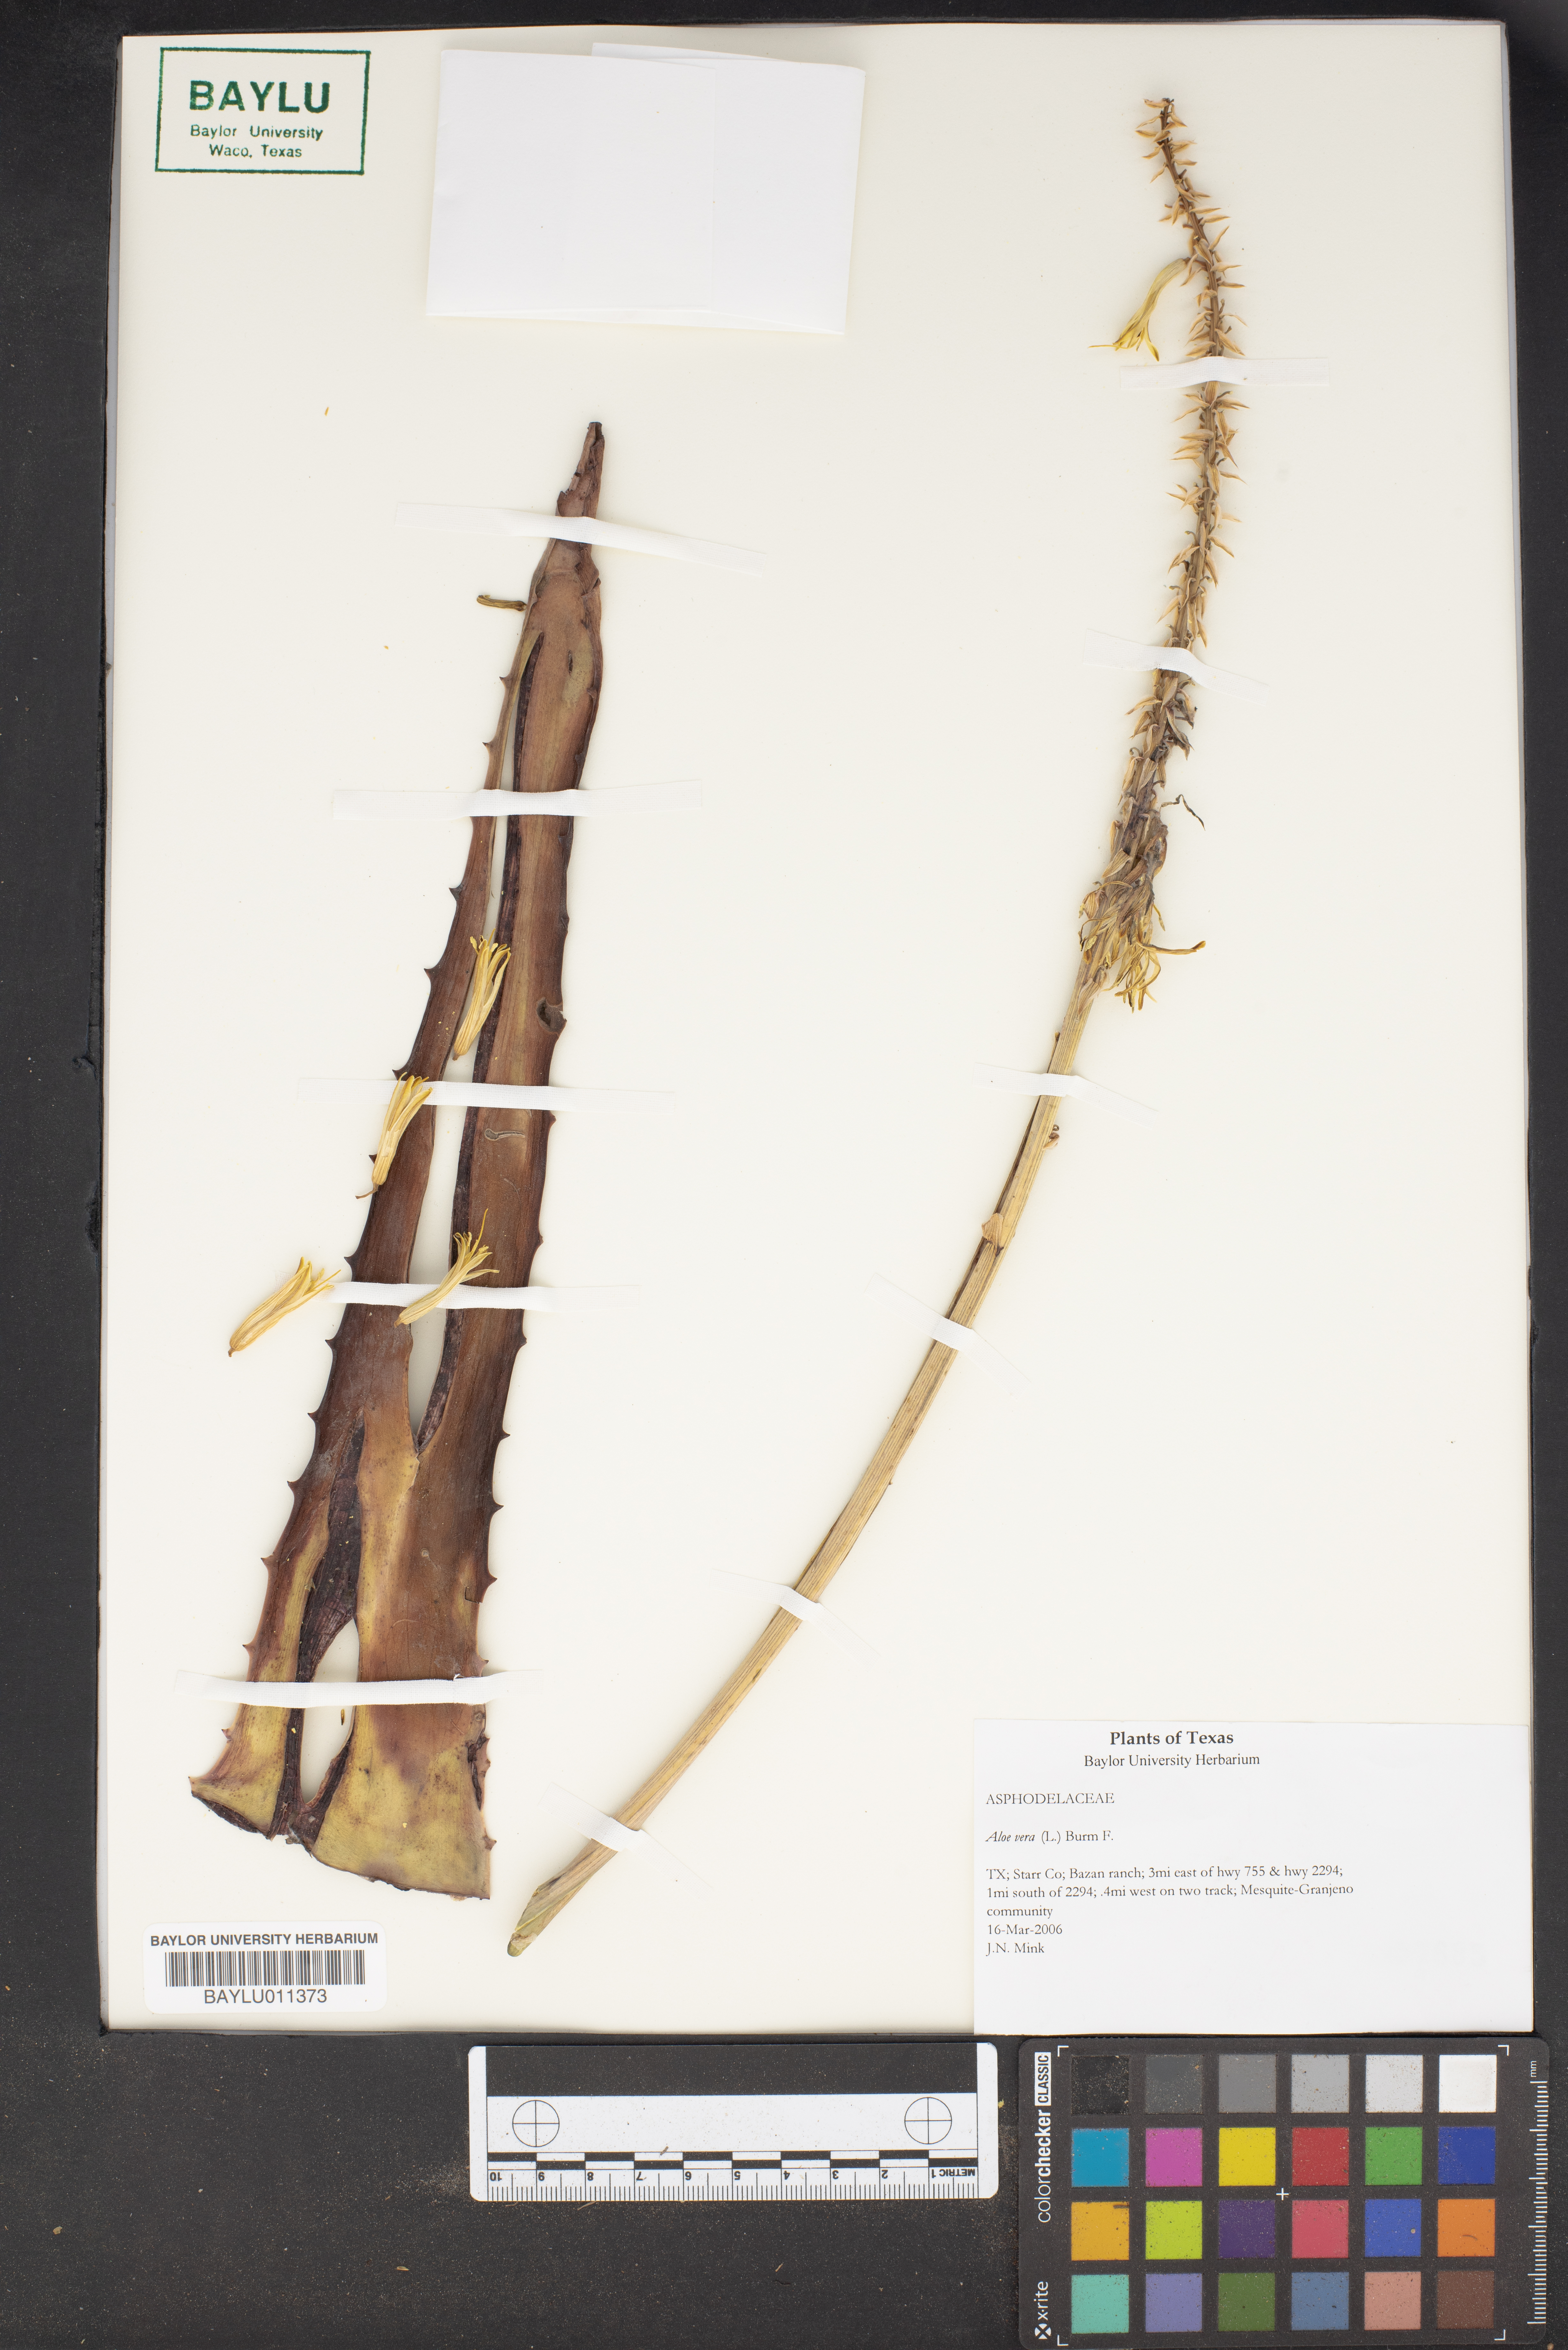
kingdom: Plantae
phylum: Tracheophyta
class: Liliopsida
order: Asparagales
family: Asphodelaceae
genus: Aloe
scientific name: Aloe vera
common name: Barbados aloe
